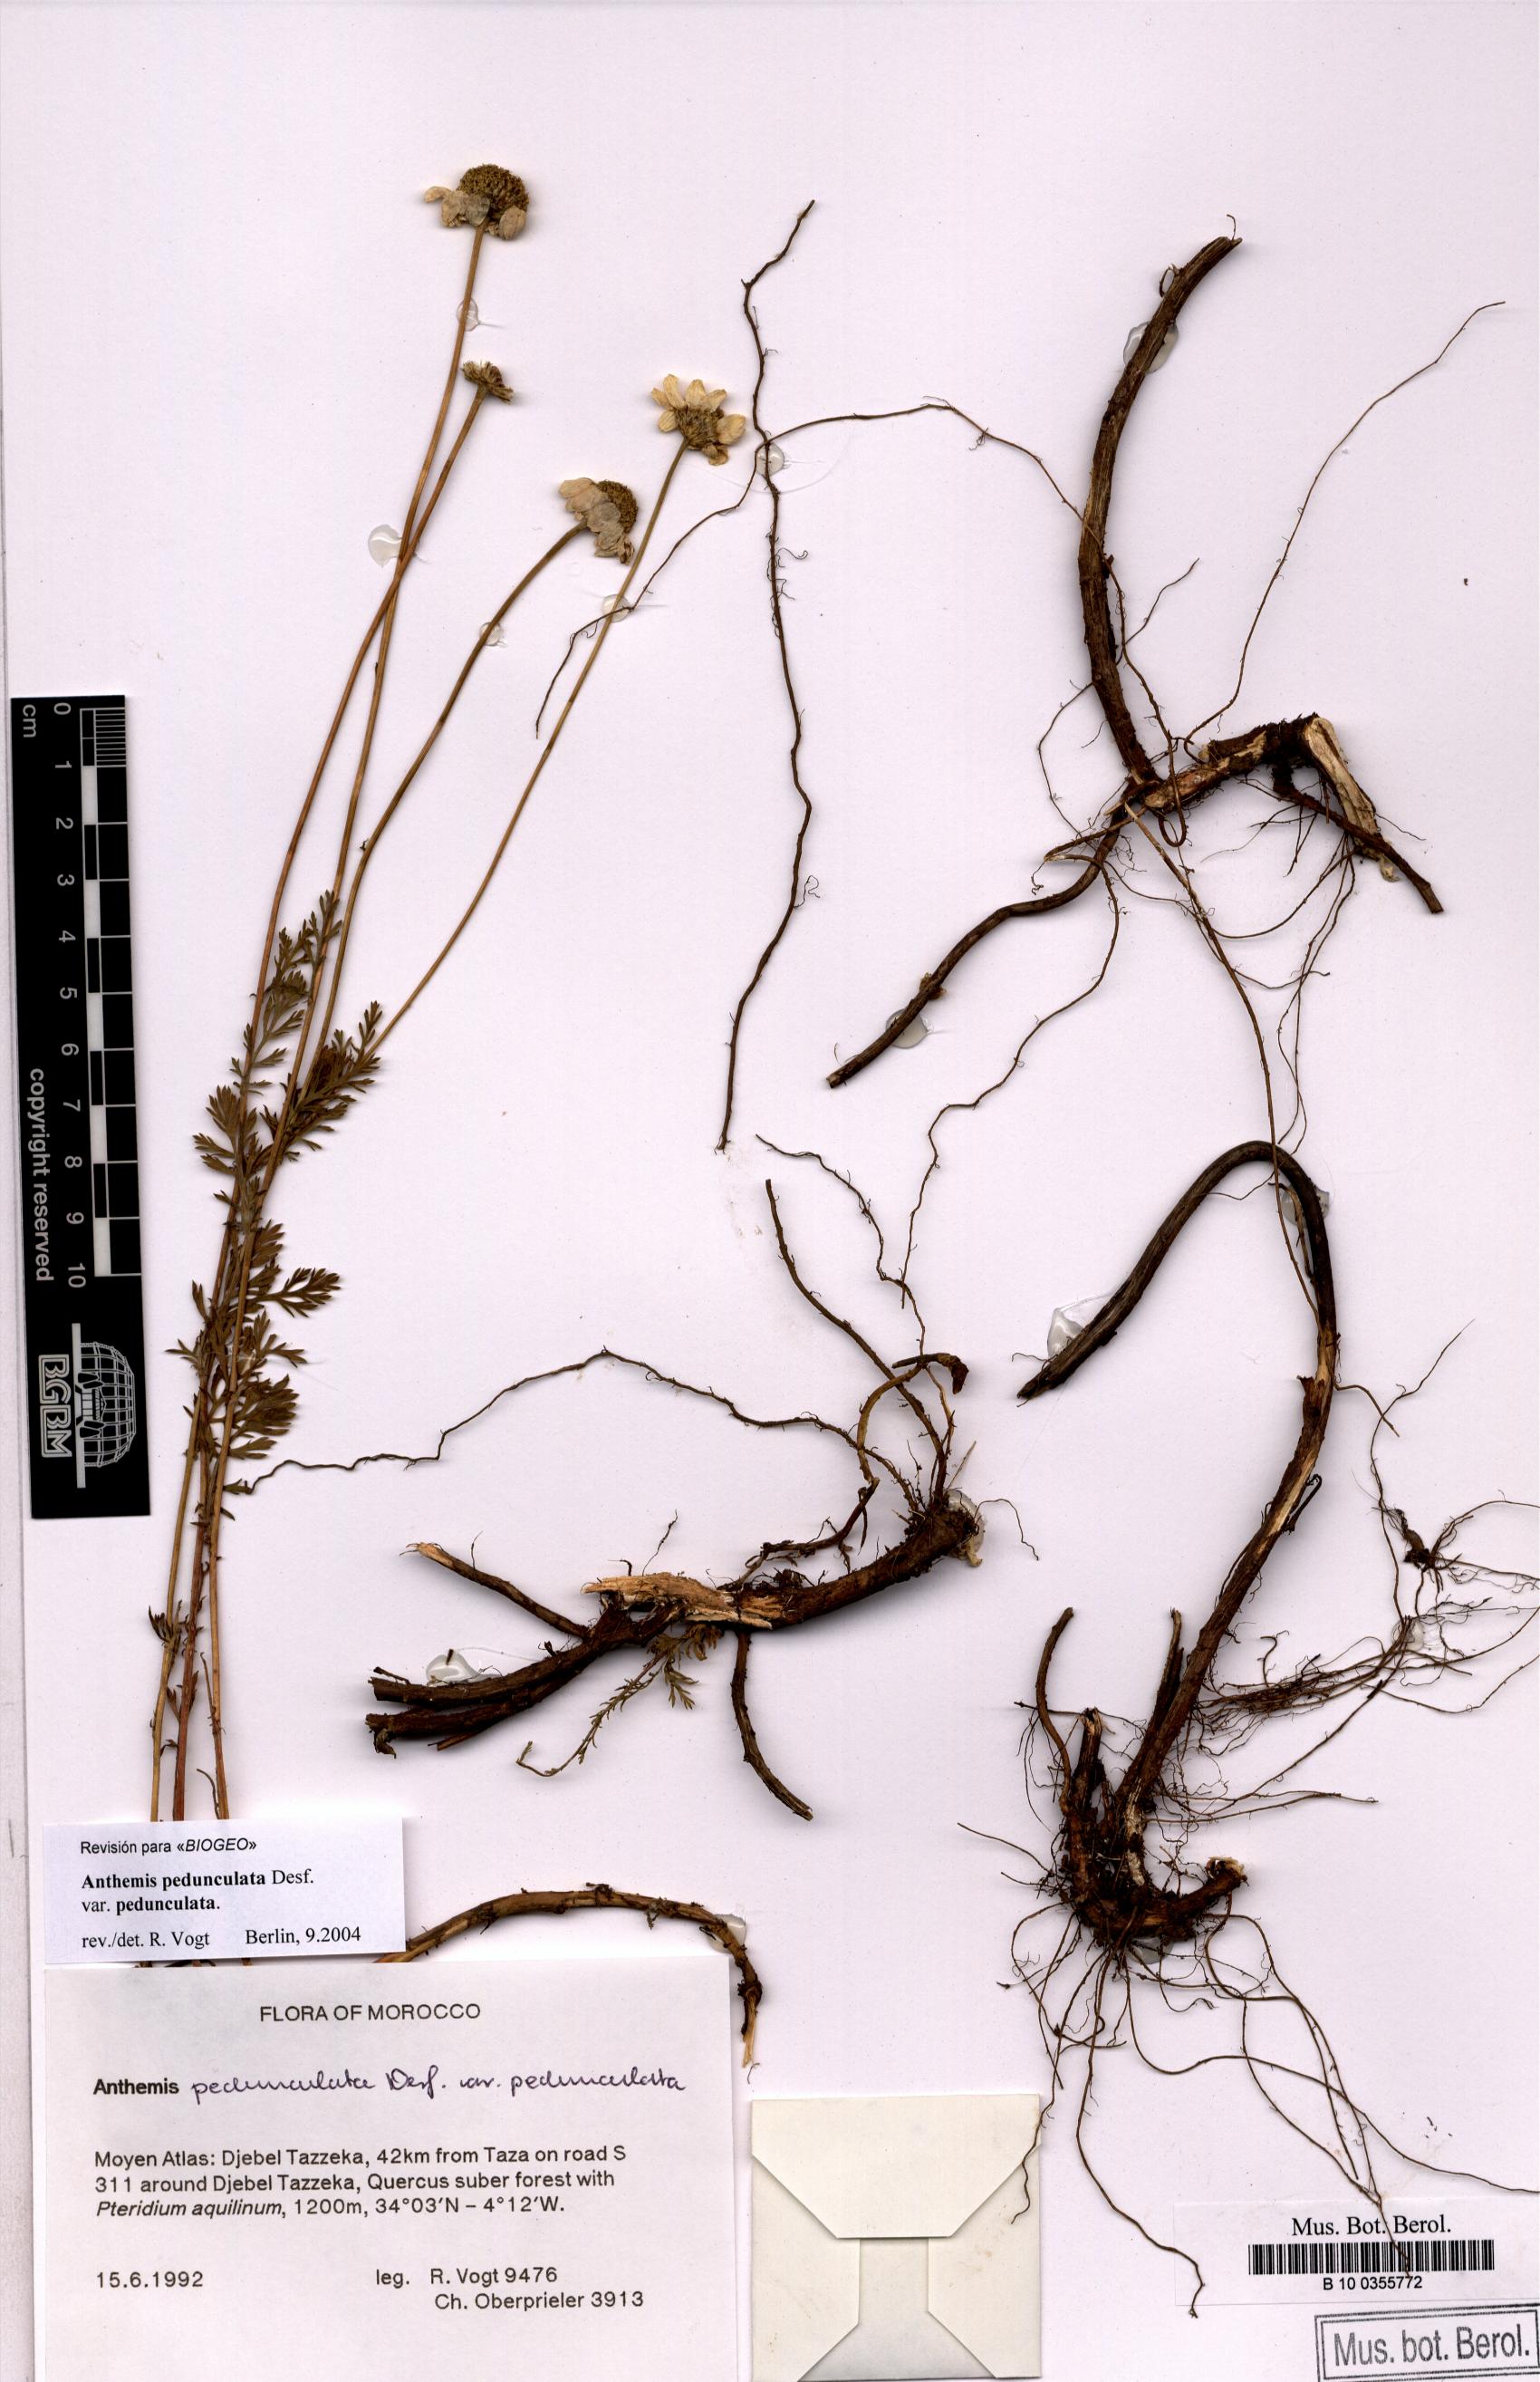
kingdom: Plantae
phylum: Tracheophyta
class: Magnoliopsida
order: Asterales
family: Asteraceae
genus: Anthemis
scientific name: Anthemis pedunculata
